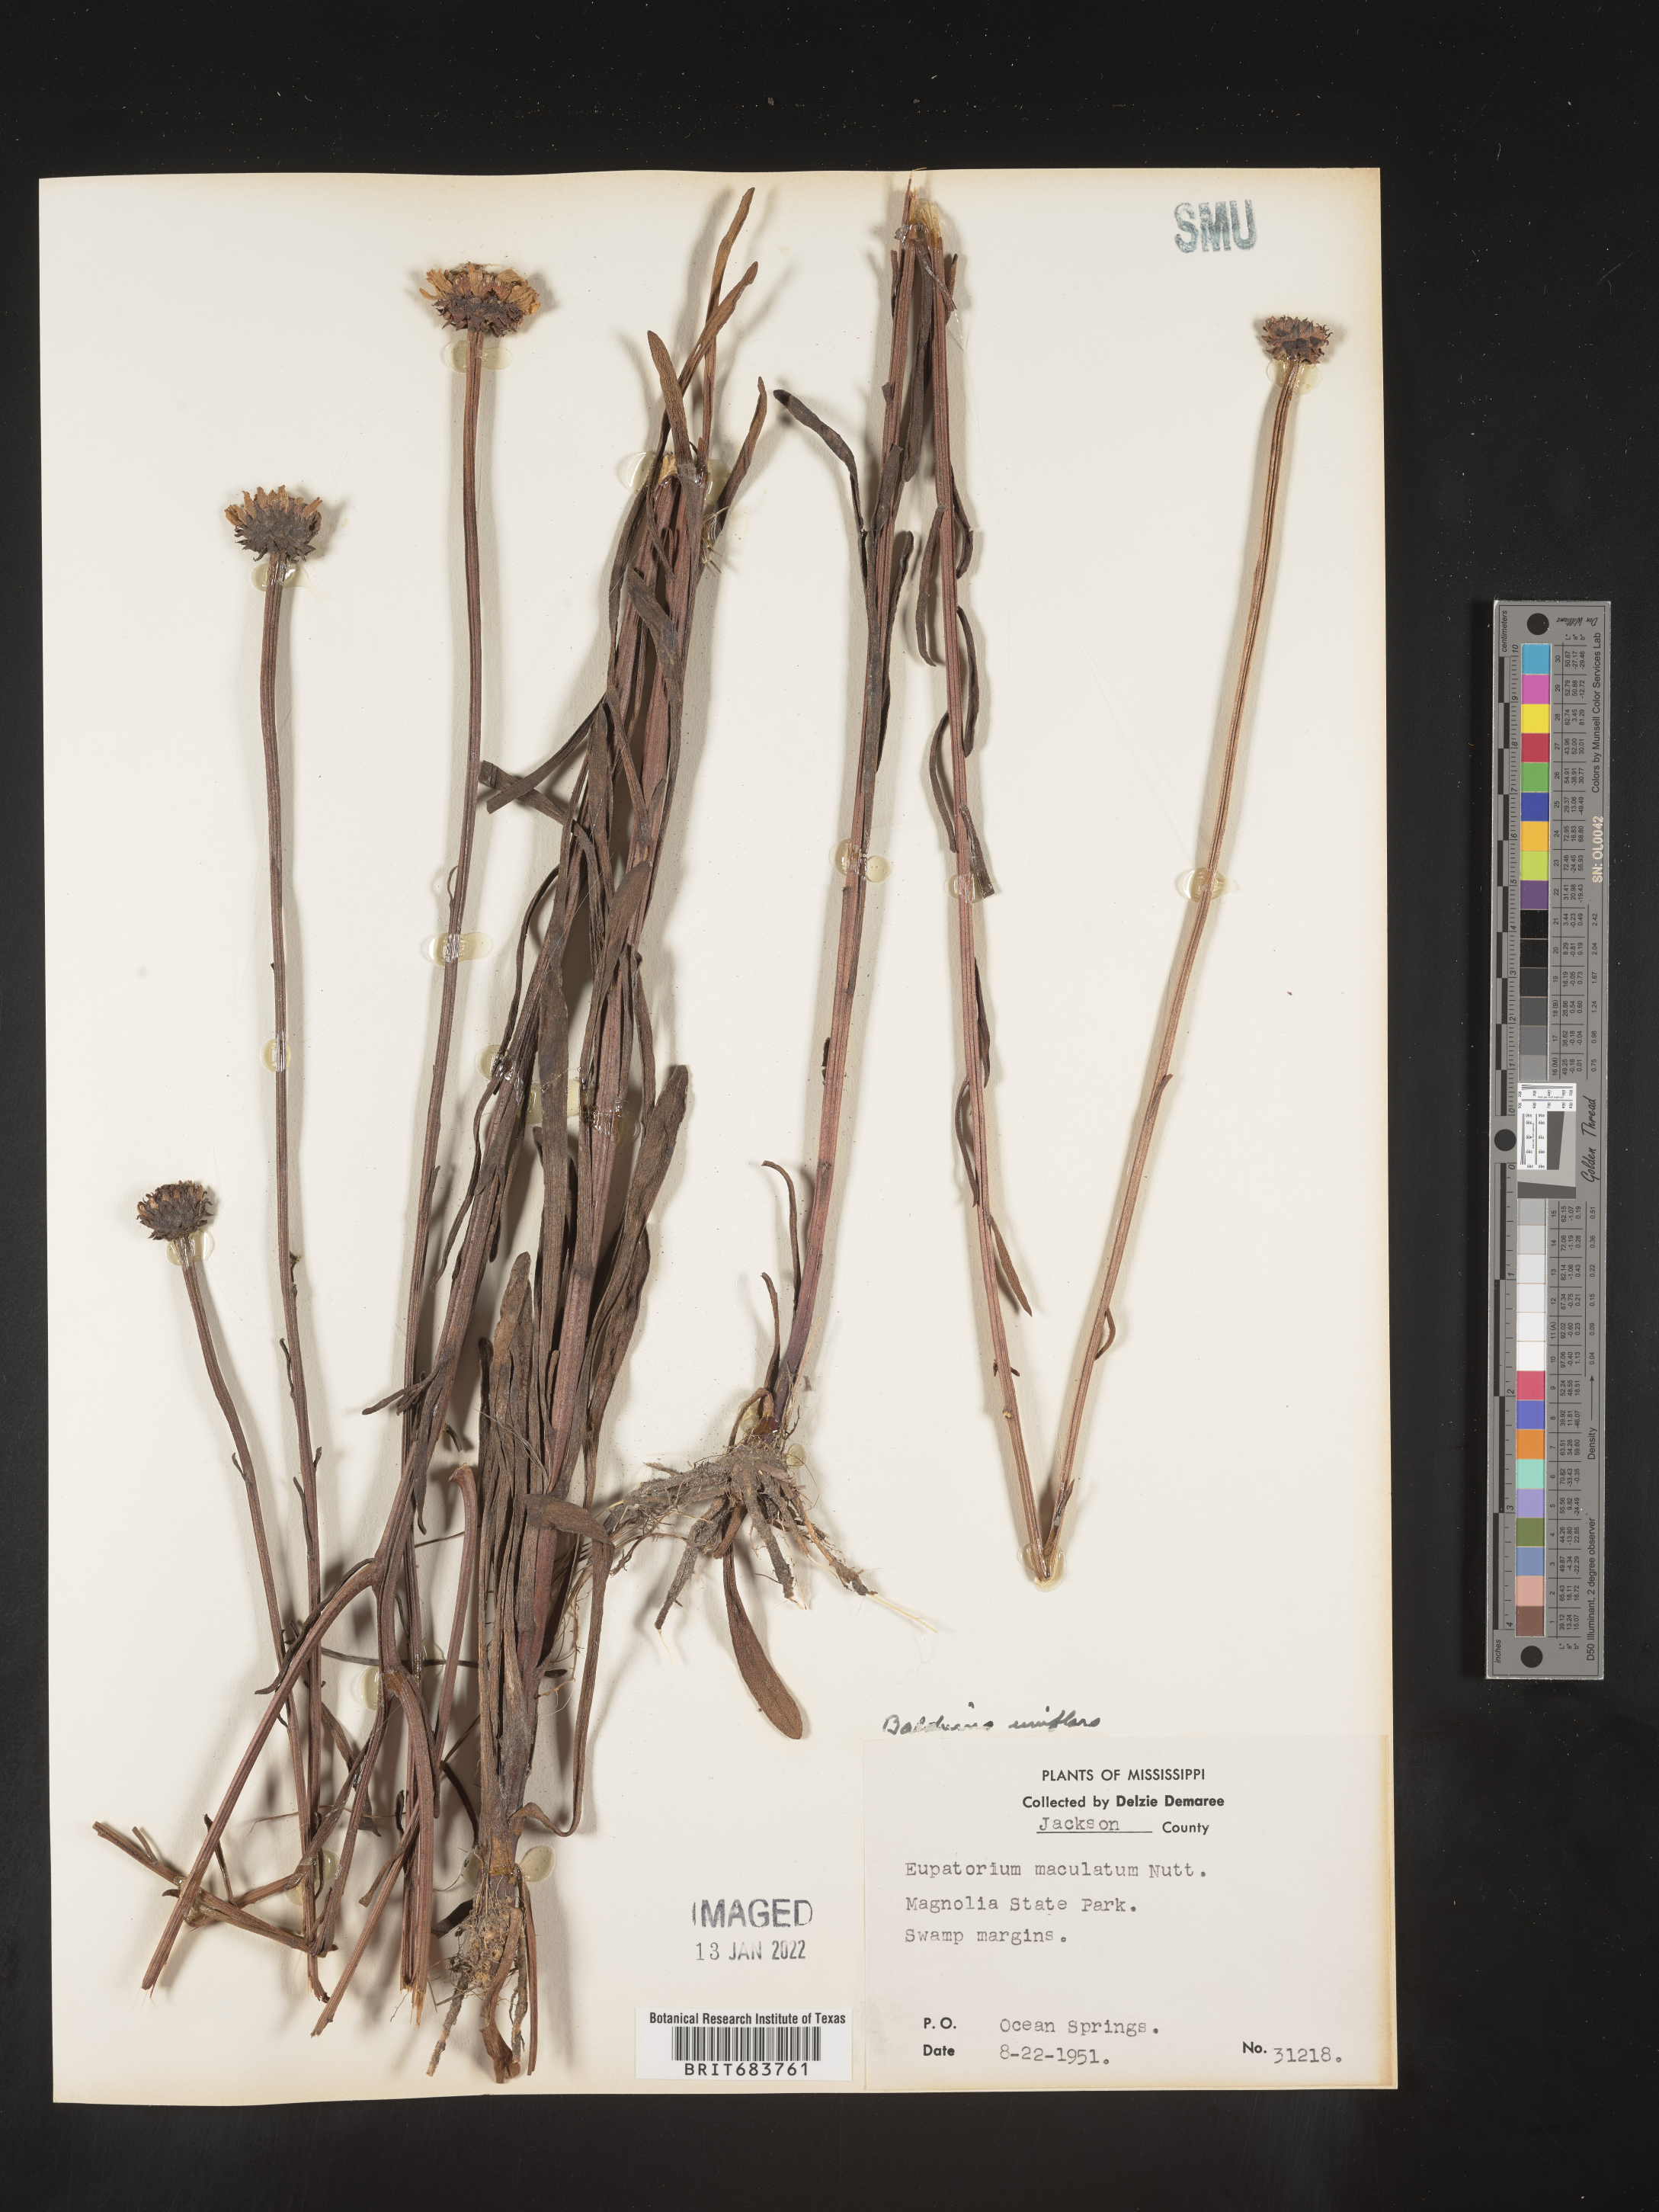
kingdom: Plantae
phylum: Tracheophyta
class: Magnoliopsida
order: Asterales
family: Asteraceae
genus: Balduina
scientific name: Balduina uniflora
